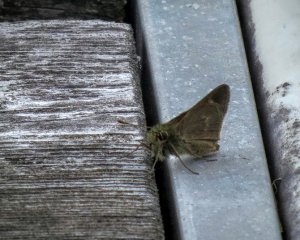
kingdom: Animalia
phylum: Arthropoda
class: Insecta
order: Lepidoptera
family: Hesperiidae
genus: Polites
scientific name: Polites themistocles
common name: Tawny-edged Skipper
